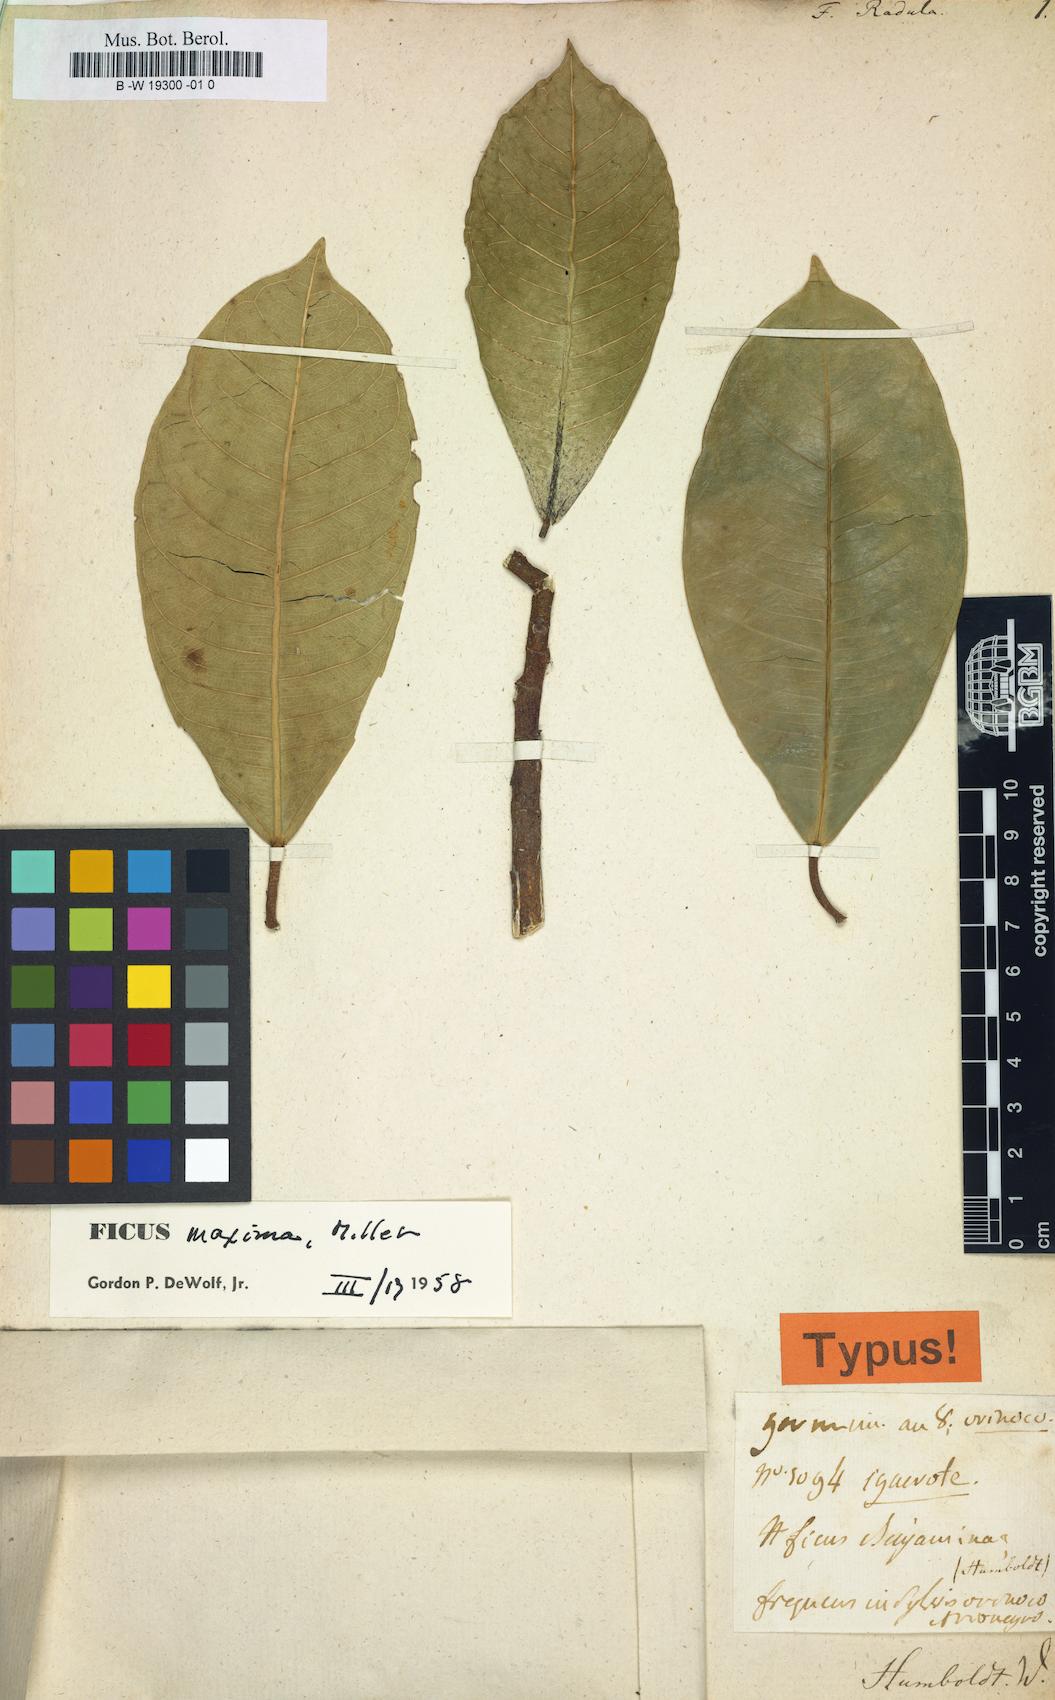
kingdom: Plantae
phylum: Tracheophyta
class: Magnoliopsida
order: Rosales
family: Moraceae
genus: Ficus
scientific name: Ficus
